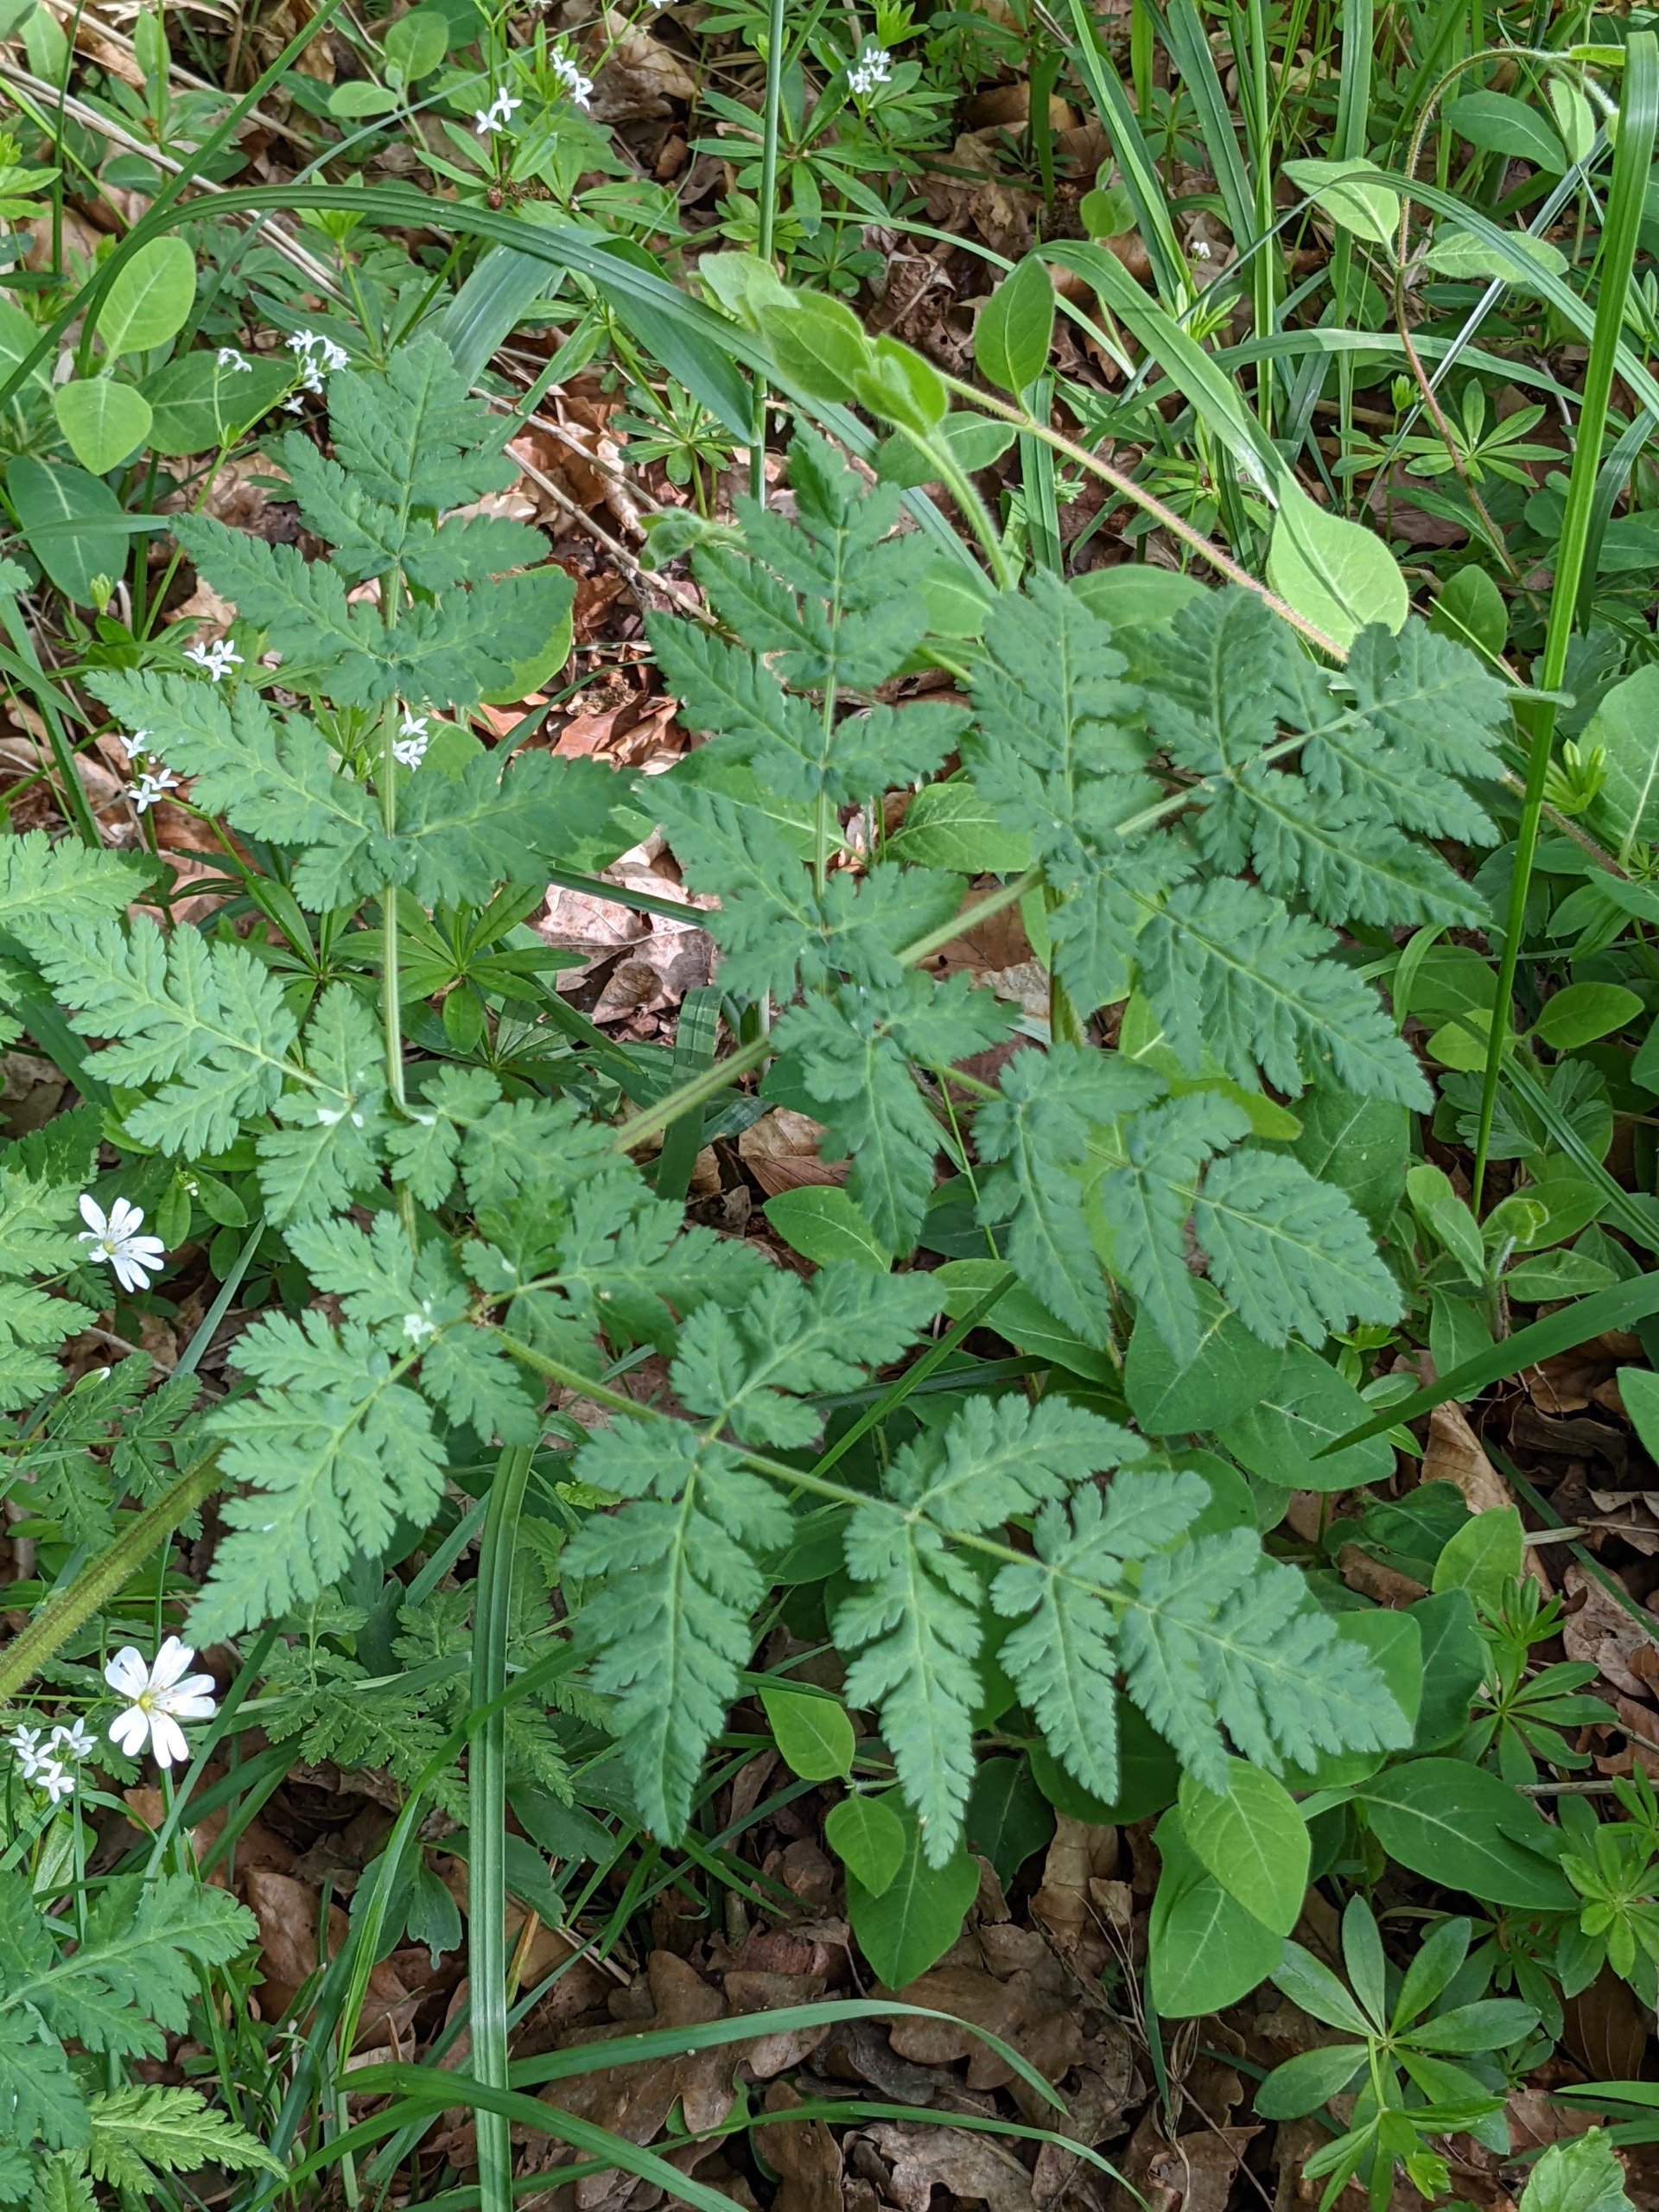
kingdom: Plantae
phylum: Tracheophyta
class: Magnoliopsida
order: Apiales
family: Apiaceae
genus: Myrrhis
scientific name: Myrrhis odorata
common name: Sødskærm
